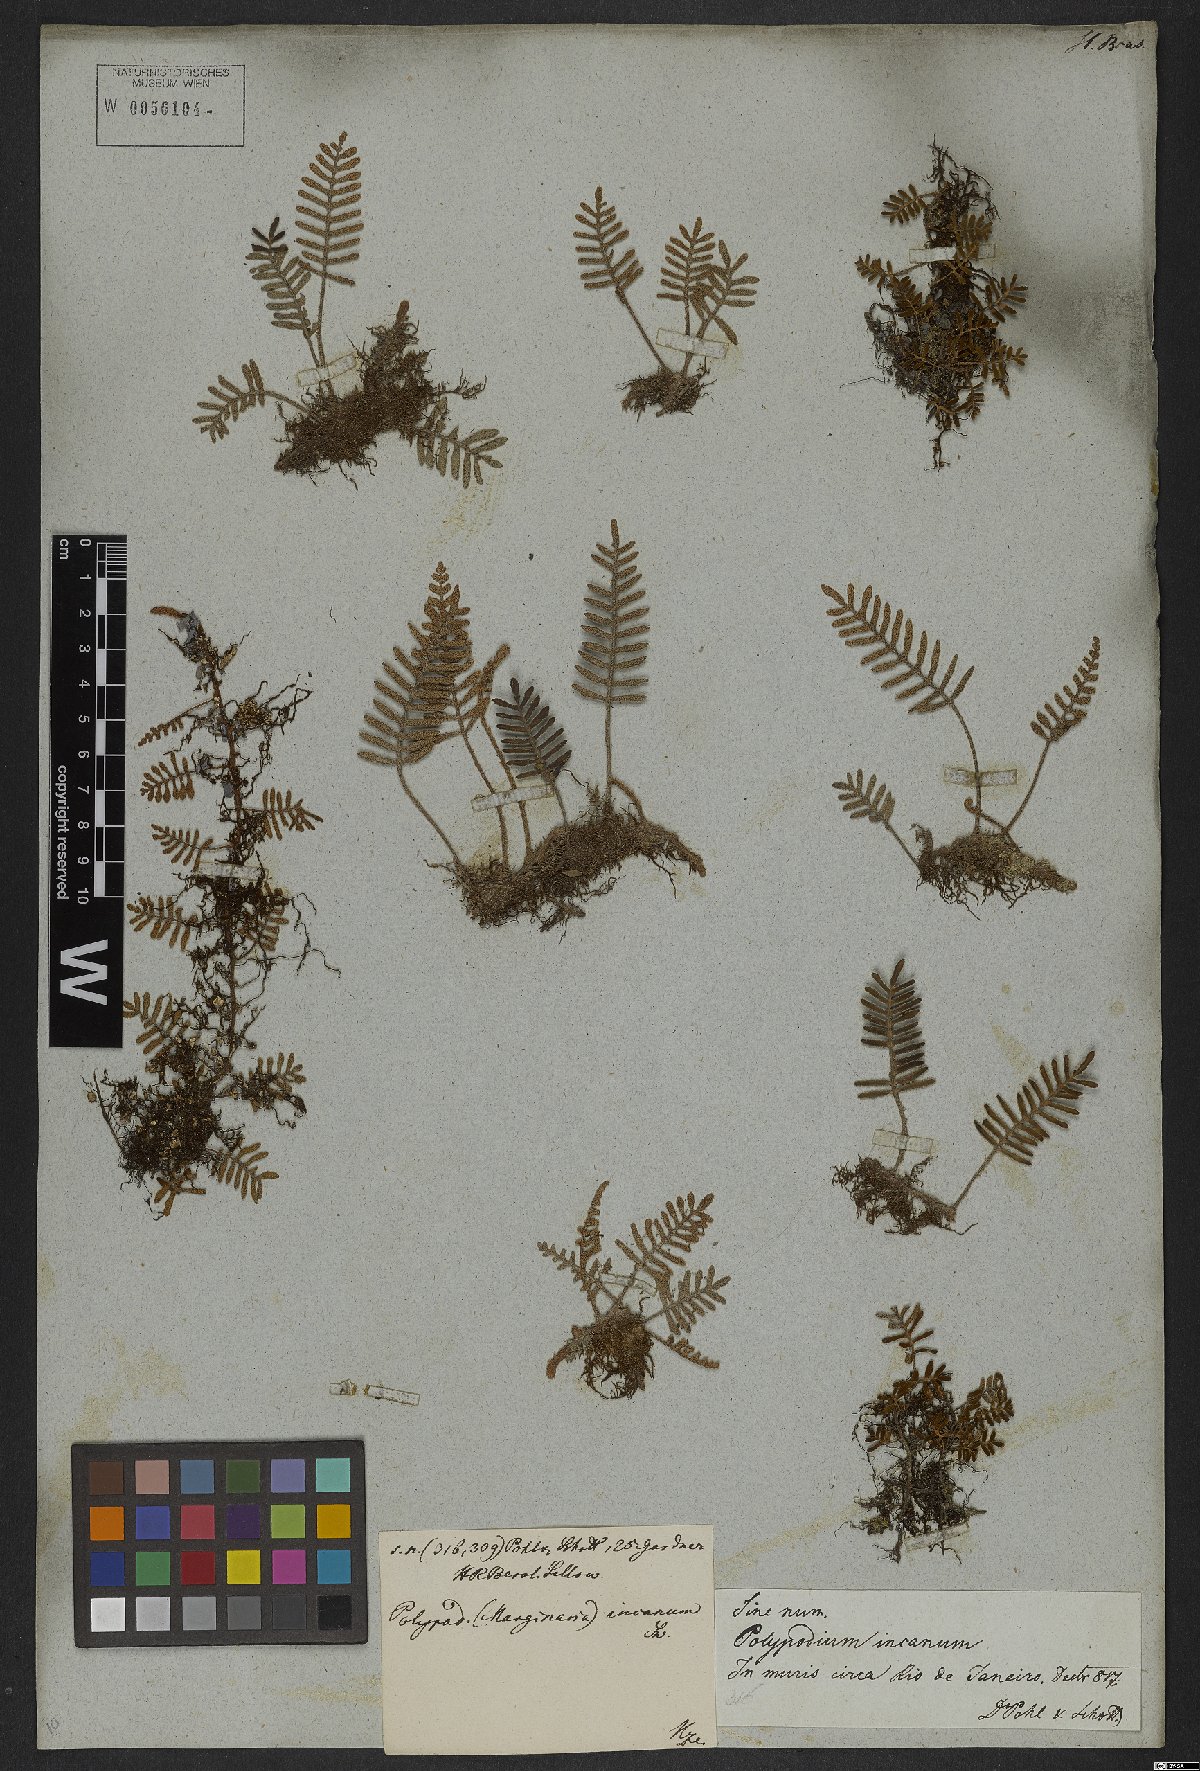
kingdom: Plantae
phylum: Tracheophyta
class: Polypodiopsida
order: Polypodiales
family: Polypodiaceae
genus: Pleopeltis
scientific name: Pleopeltis polypodioides
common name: Resurrection fern
